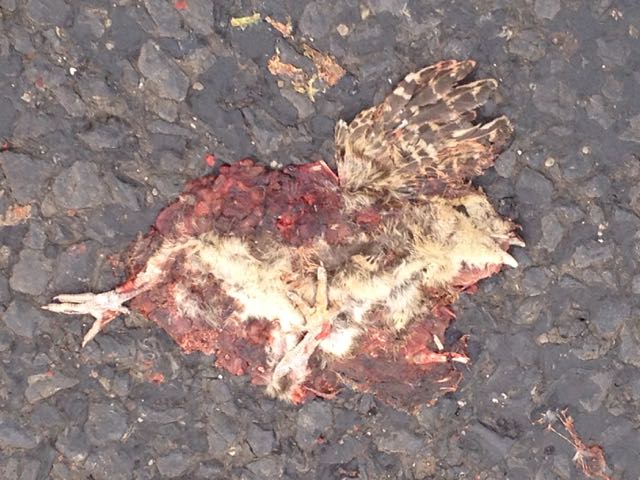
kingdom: Animalia
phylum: Chordata
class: Aves
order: Galliformes
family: Phasianidae
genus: Phasianus
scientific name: Phasianus colchicus
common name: Common pheasant
